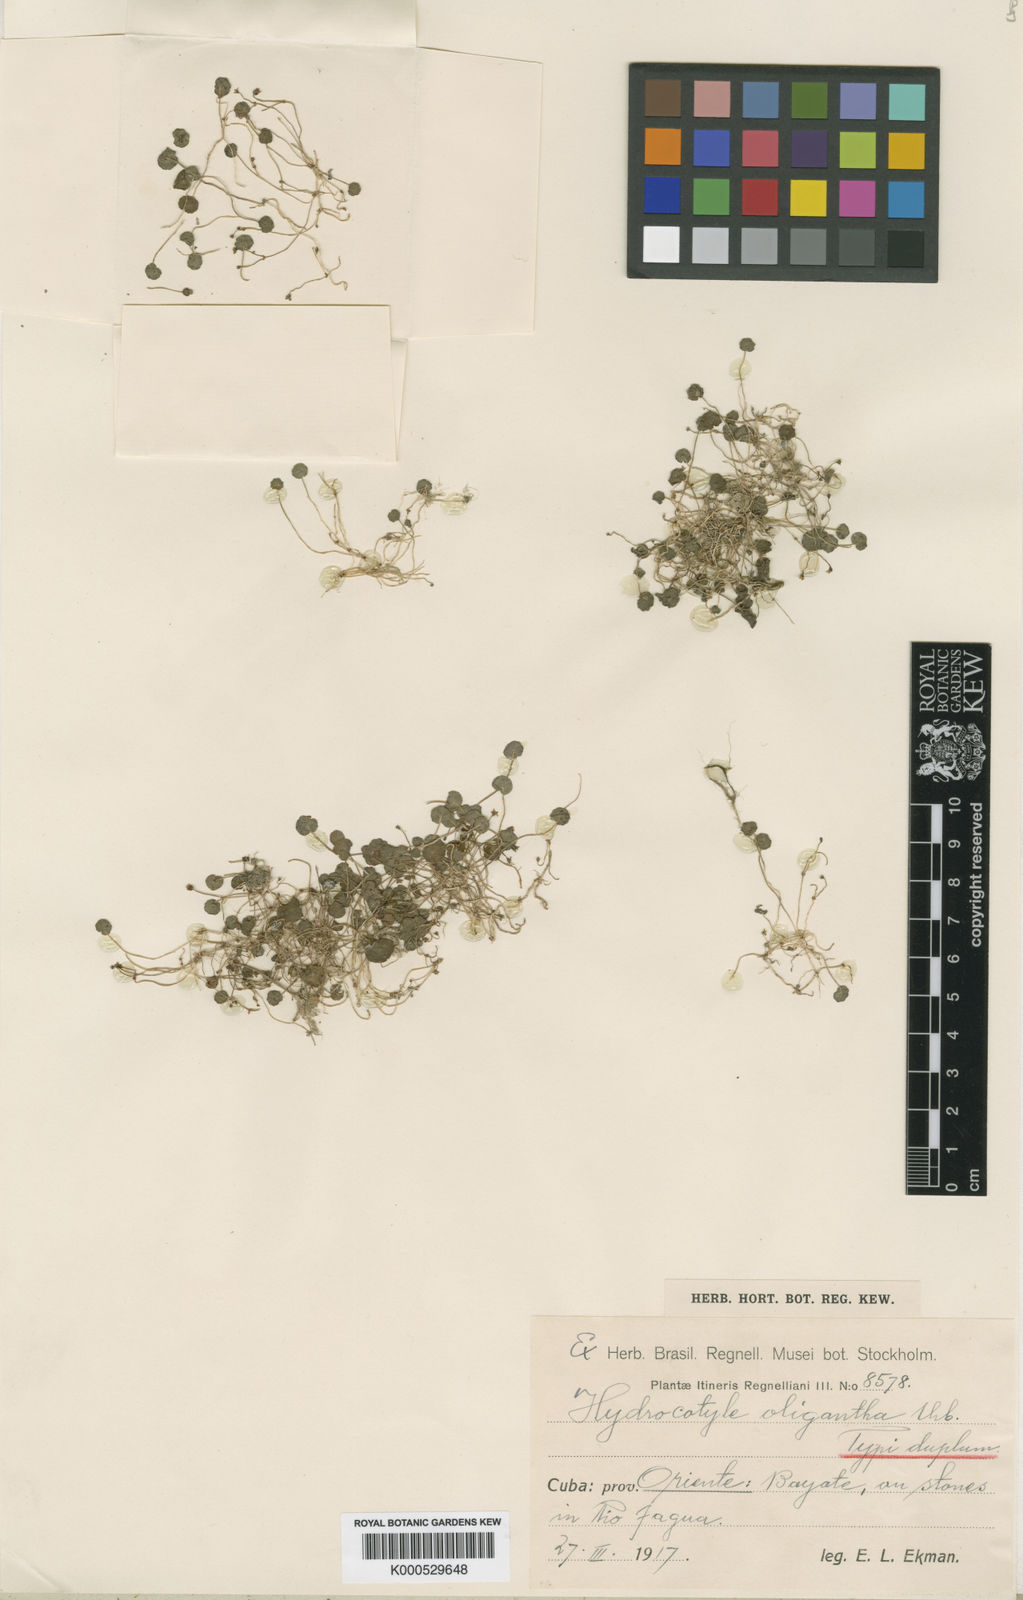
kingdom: Plantae
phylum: Tracheophyta
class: Magnoliopsida
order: Apiales
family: Araliaceae
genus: Hydrocotyle
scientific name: Hydrocotyle oligantha
